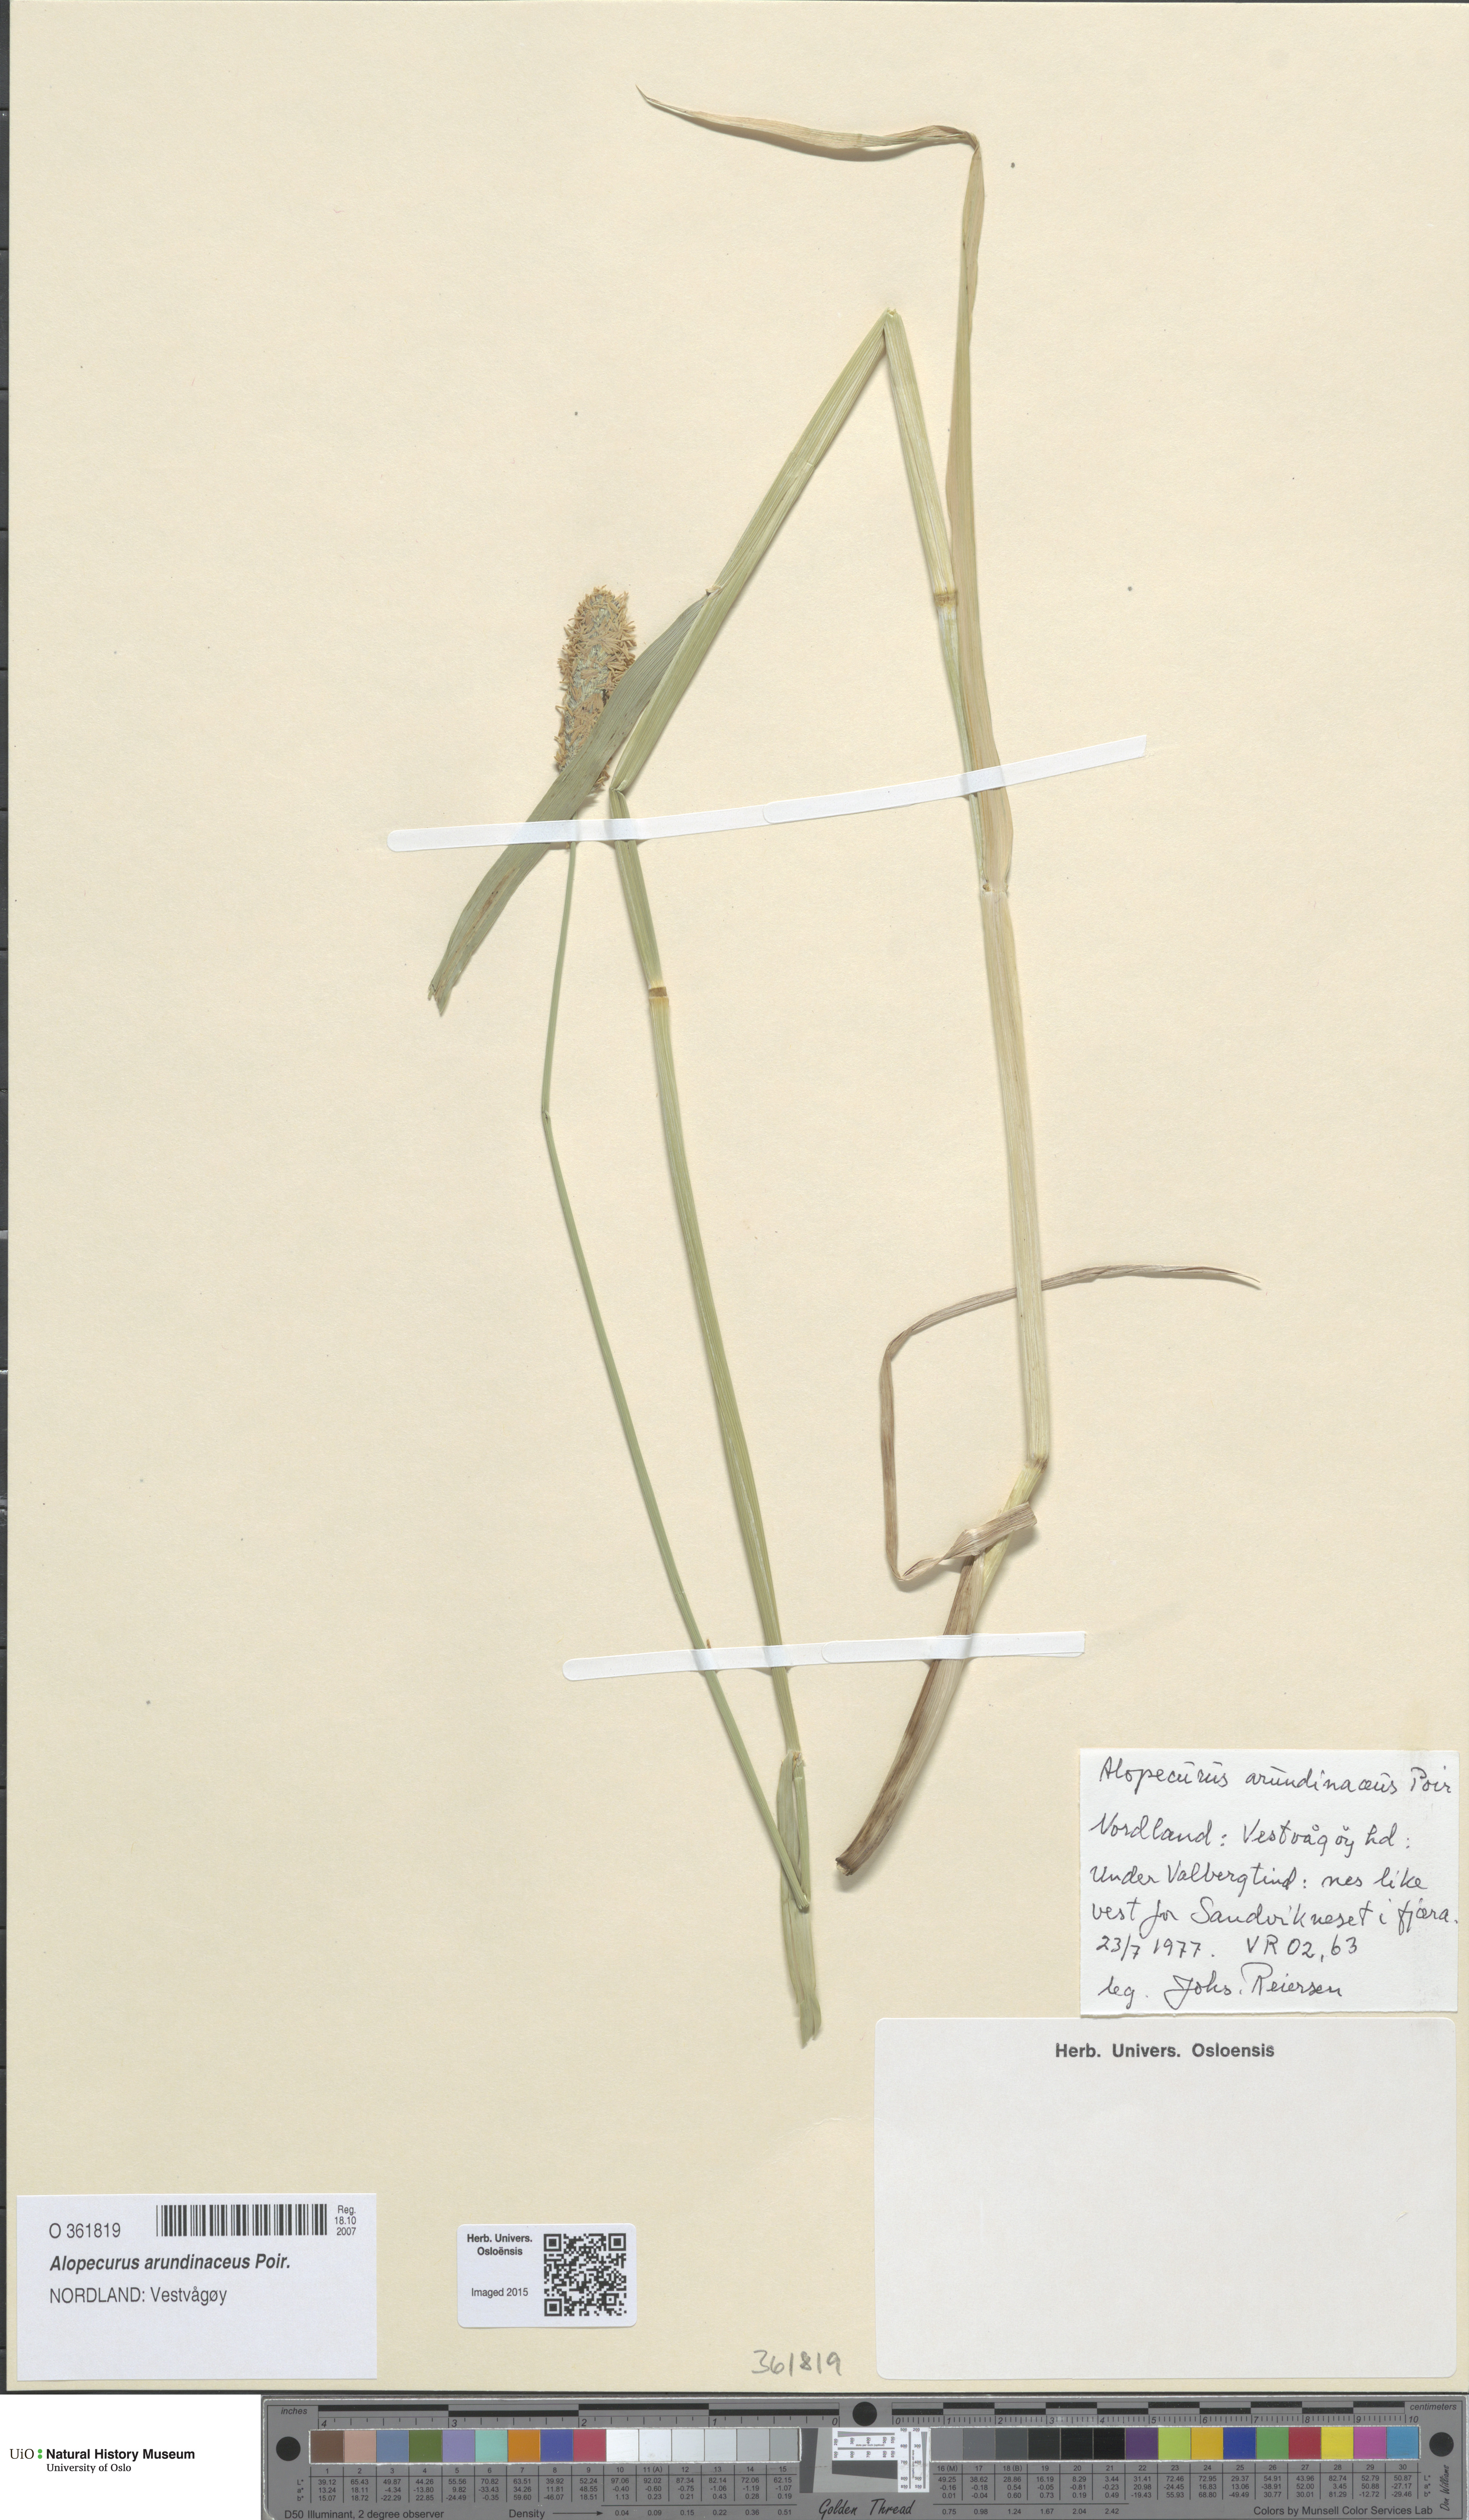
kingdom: Plantae
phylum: Tracheophyta
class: Liliopsida
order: Poales
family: Poaceae
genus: Alopecurus
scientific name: Alopecurus arundinaceus
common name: Creeping meadow foxtail
